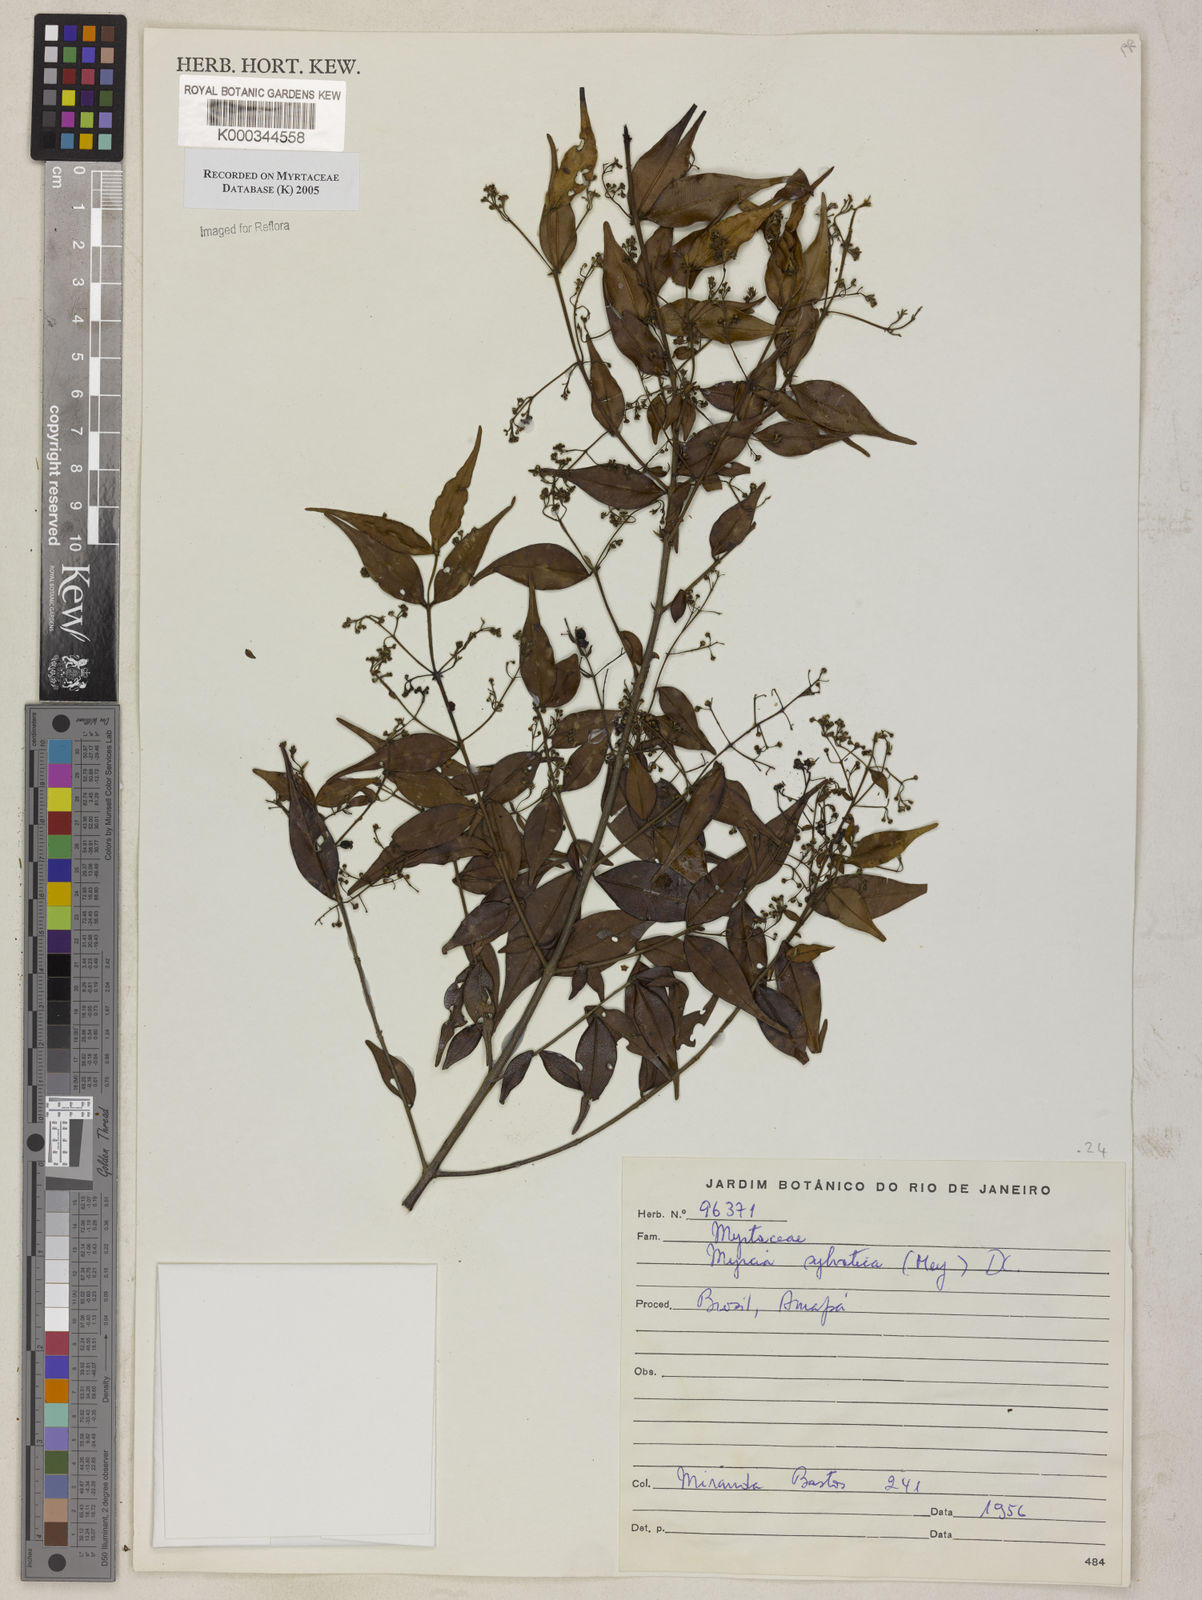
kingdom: Plantae
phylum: Tracheophyta
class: Magnoliopsida
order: Myrtales
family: Myrtaceae
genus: Myrcia
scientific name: Myrcia sylvatica
